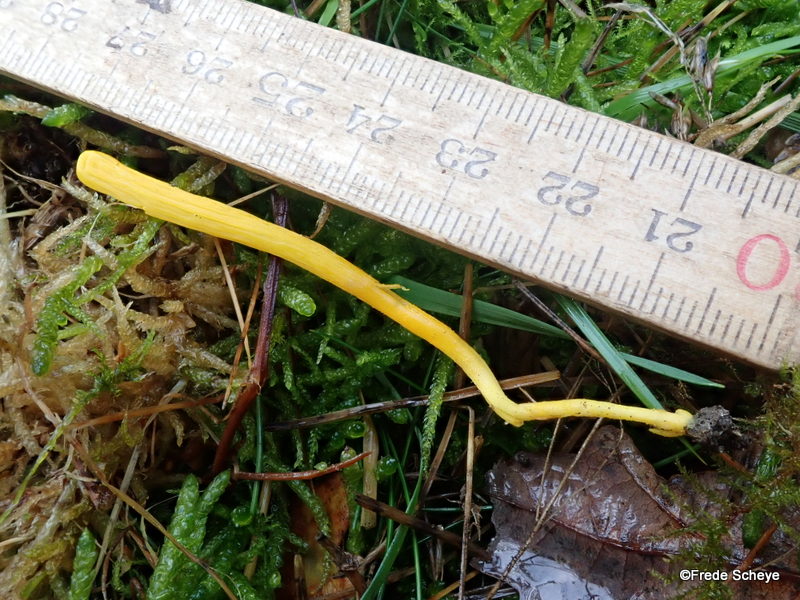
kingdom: Fungi
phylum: Basidiomycota
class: Agaricomycetes
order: Agaricales
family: Clavariaceae
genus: Clavulinopsis
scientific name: Clavulinopsis helvola
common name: orangegul køllesvamp
